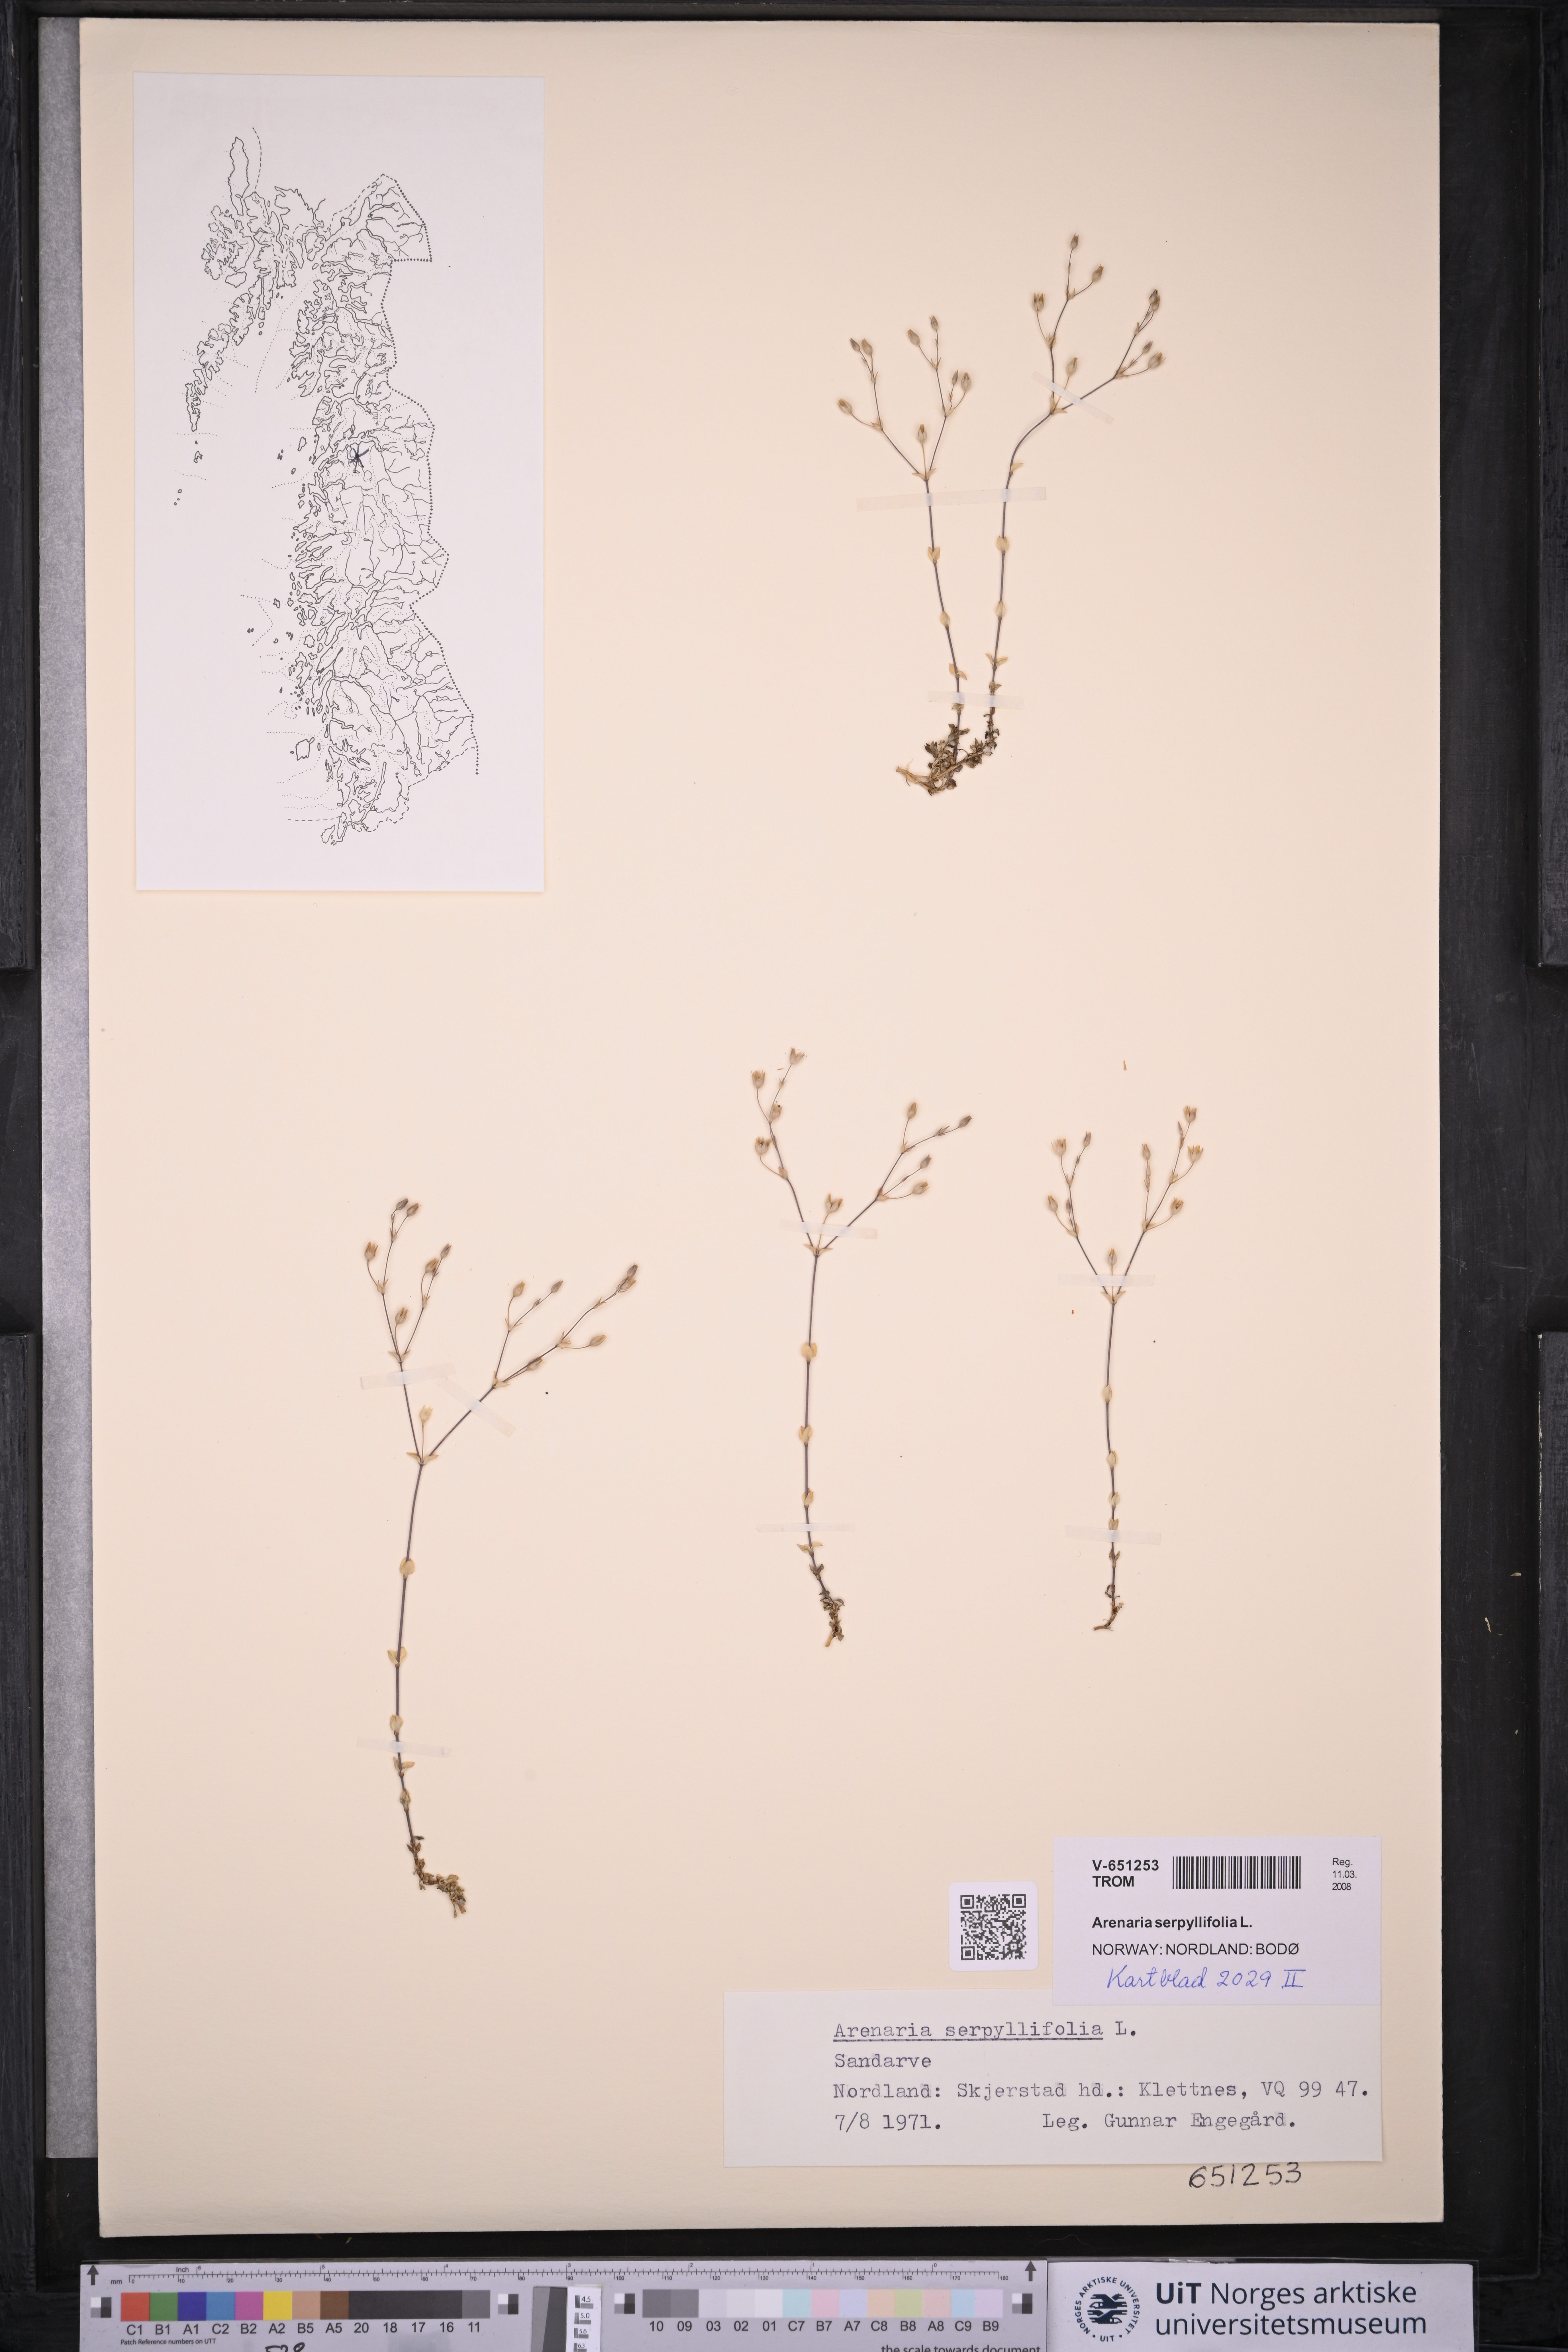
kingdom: Plantae
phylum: Tracheophyta
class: Magnoliopsida
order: Caryophyllales
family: Caryophyllaceae
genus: Arenaria
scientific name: Arenaria serpyllifolia
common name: Thyme-leaved sandwort
